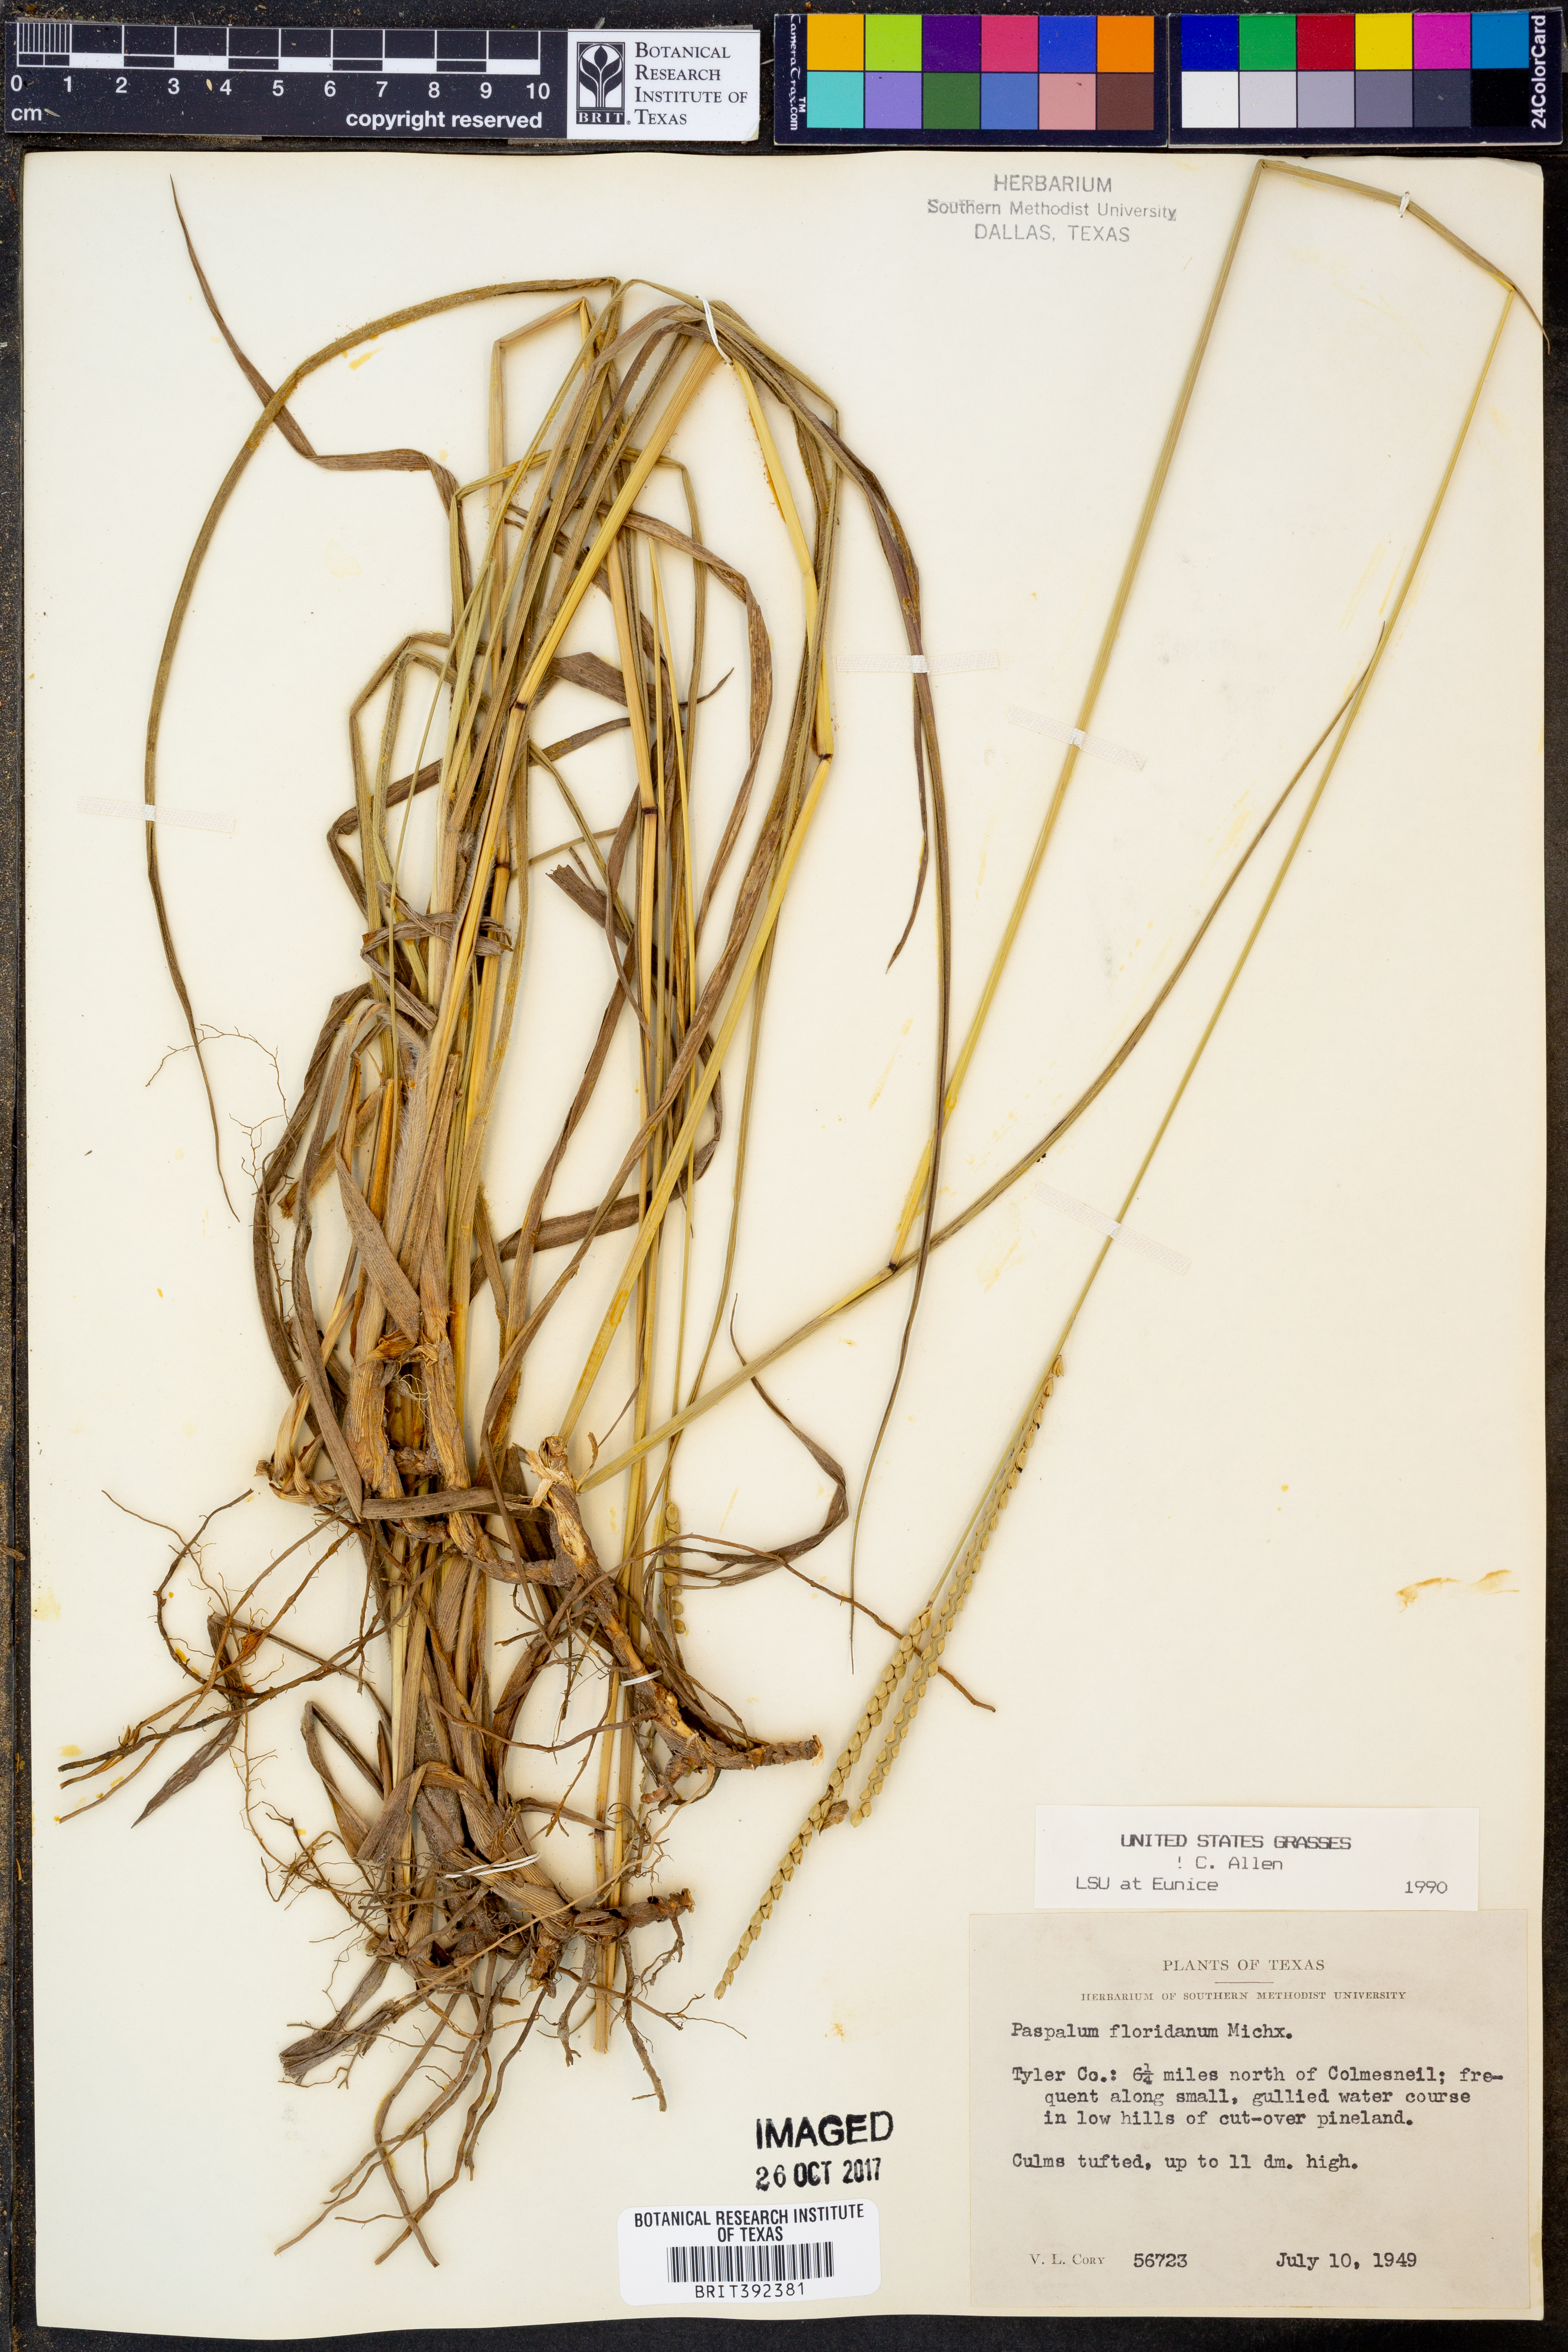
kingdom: Plantae
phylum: Tracheophyta
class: Liliopsida
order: Poales
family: Poaceae
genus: Paspalum
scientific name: Paspalum floridanum
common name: Florida paspalum
